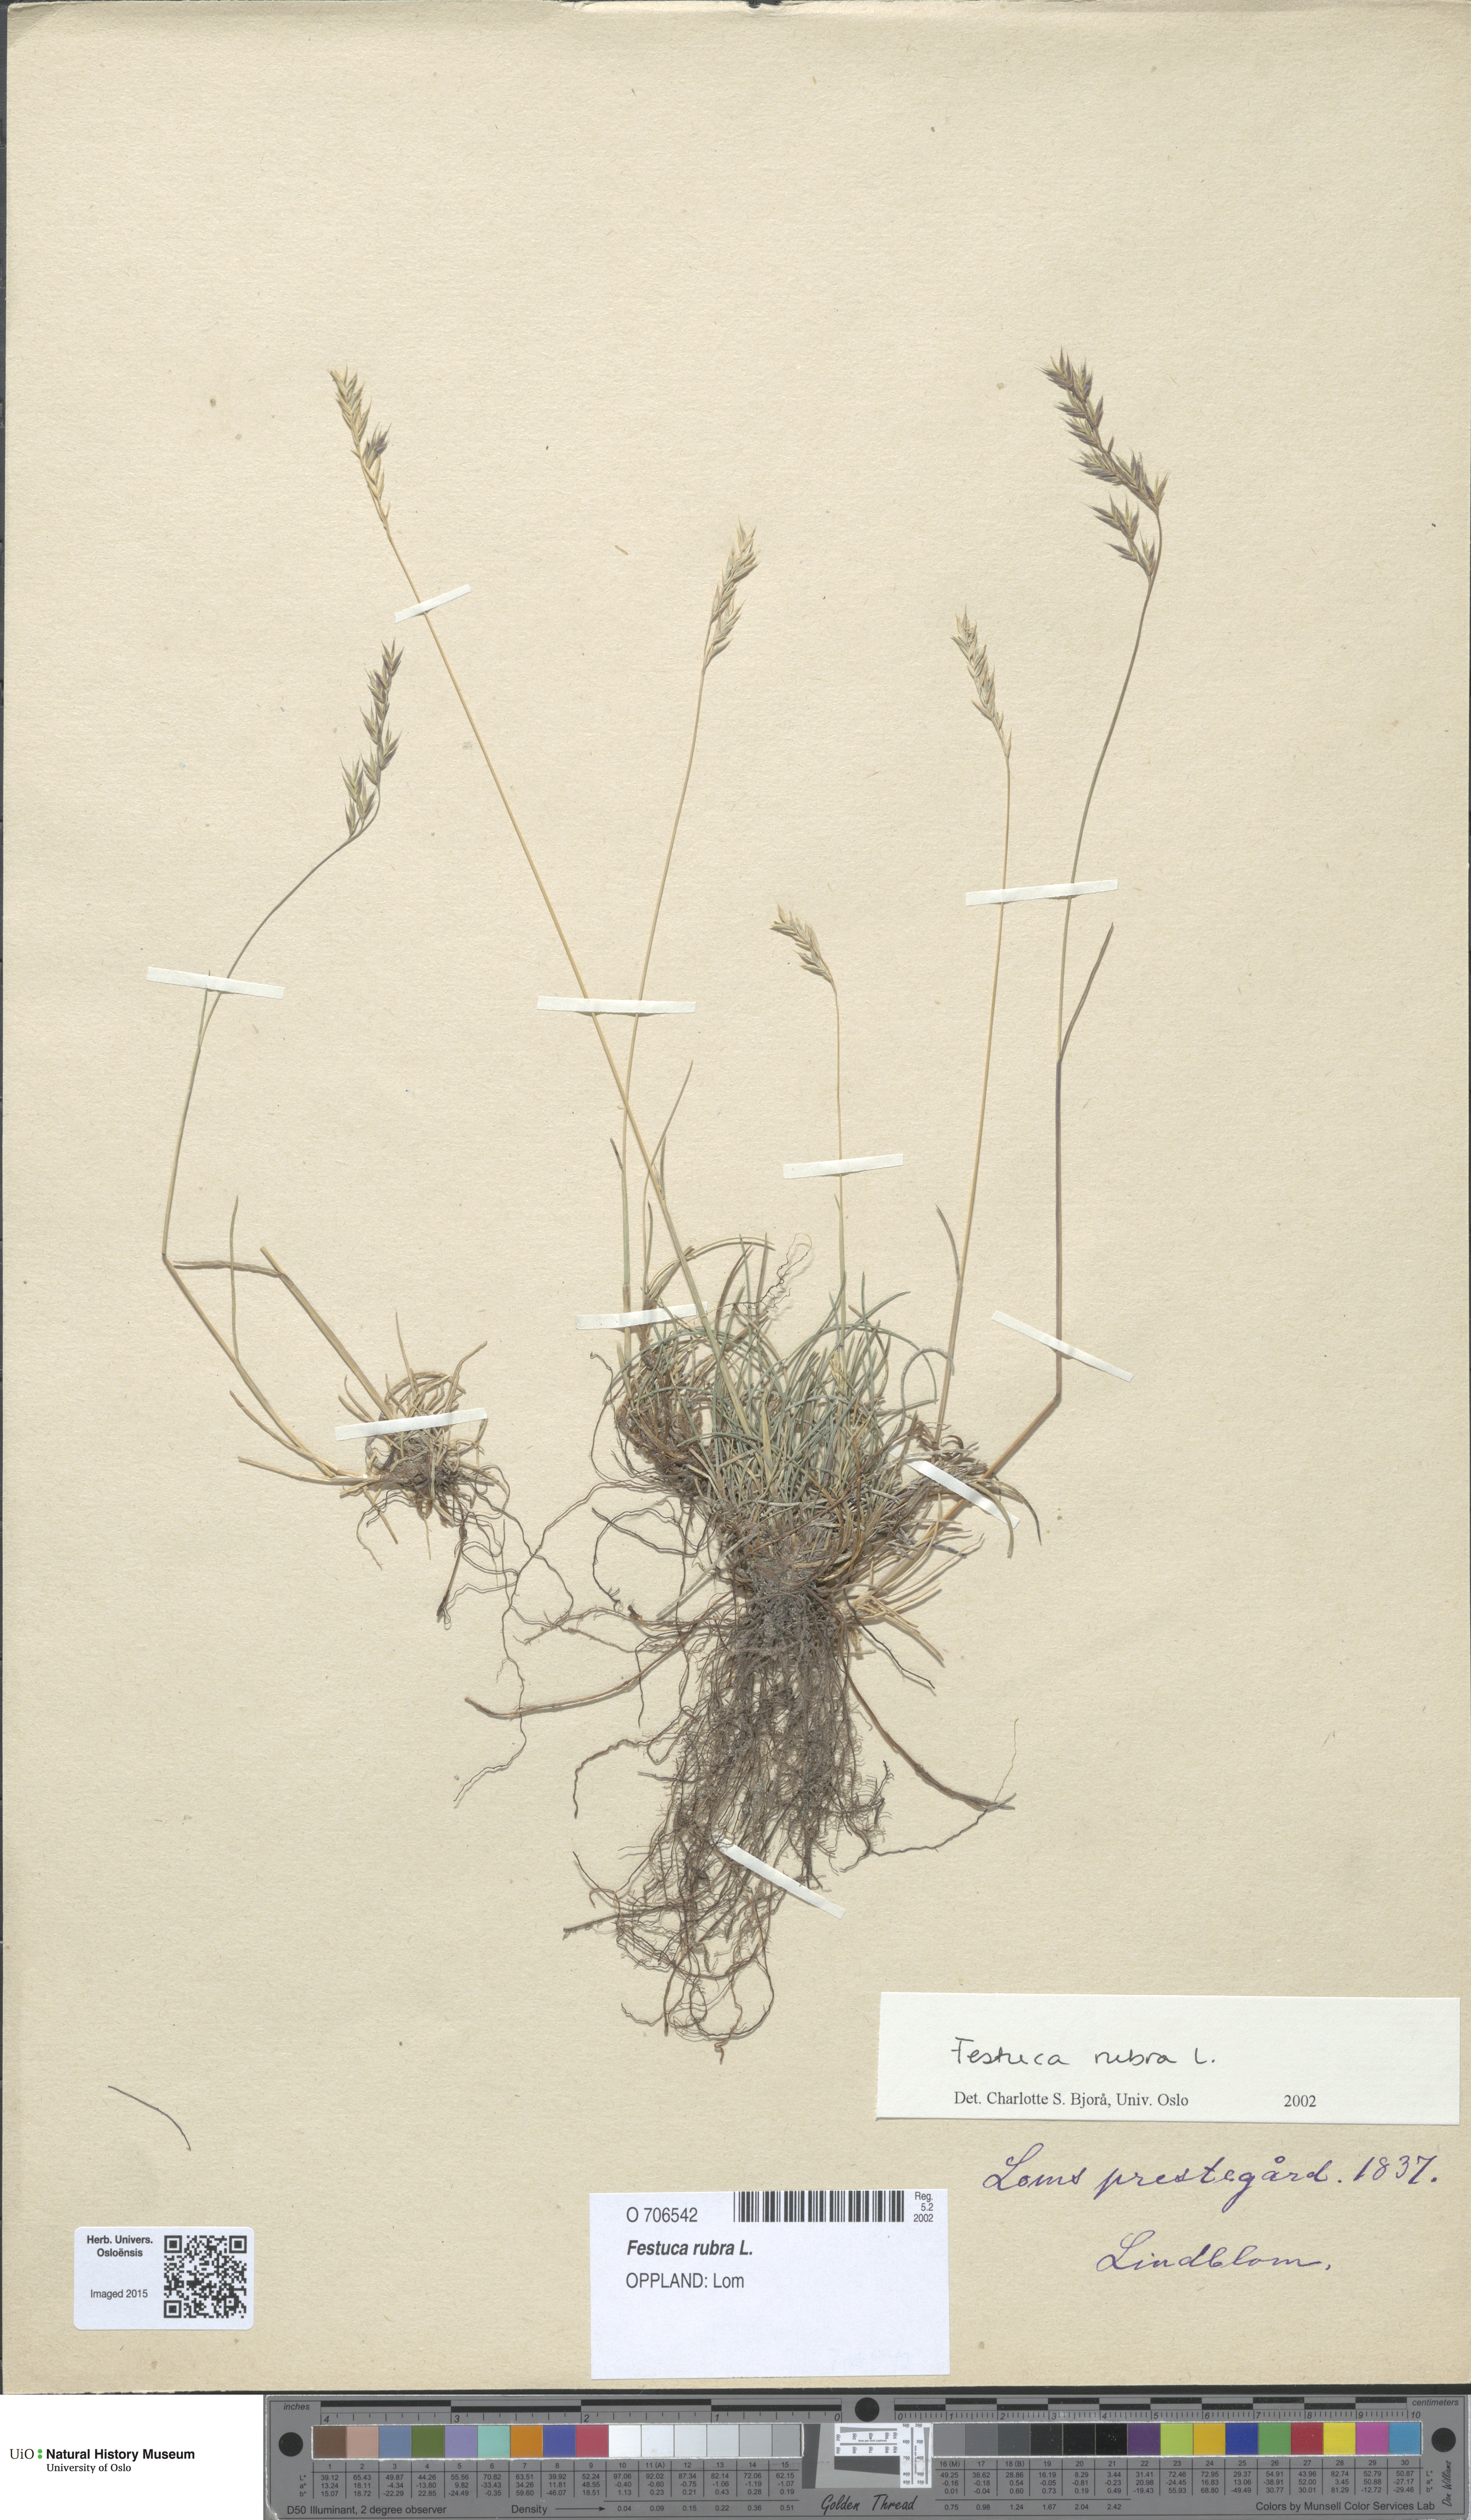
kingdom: Plantae
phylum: Tracheophyta
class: Liliopsida
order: Poales
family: Poaceae
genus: Festuca
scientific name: Festuca rubra
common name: Red fescue
